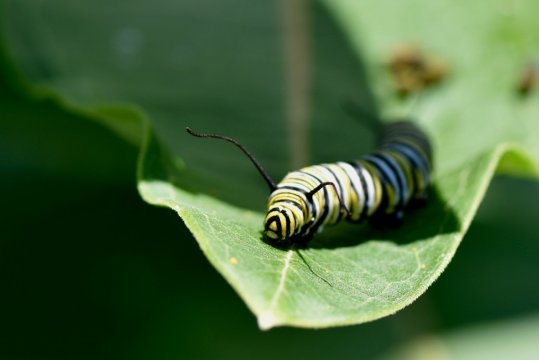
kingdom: Animalia
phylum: Arthropoda
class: Insecta
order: Lepidoptera
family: Nymphalidae
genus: Danaus
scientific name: Danaus plexippus
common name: Monarch
